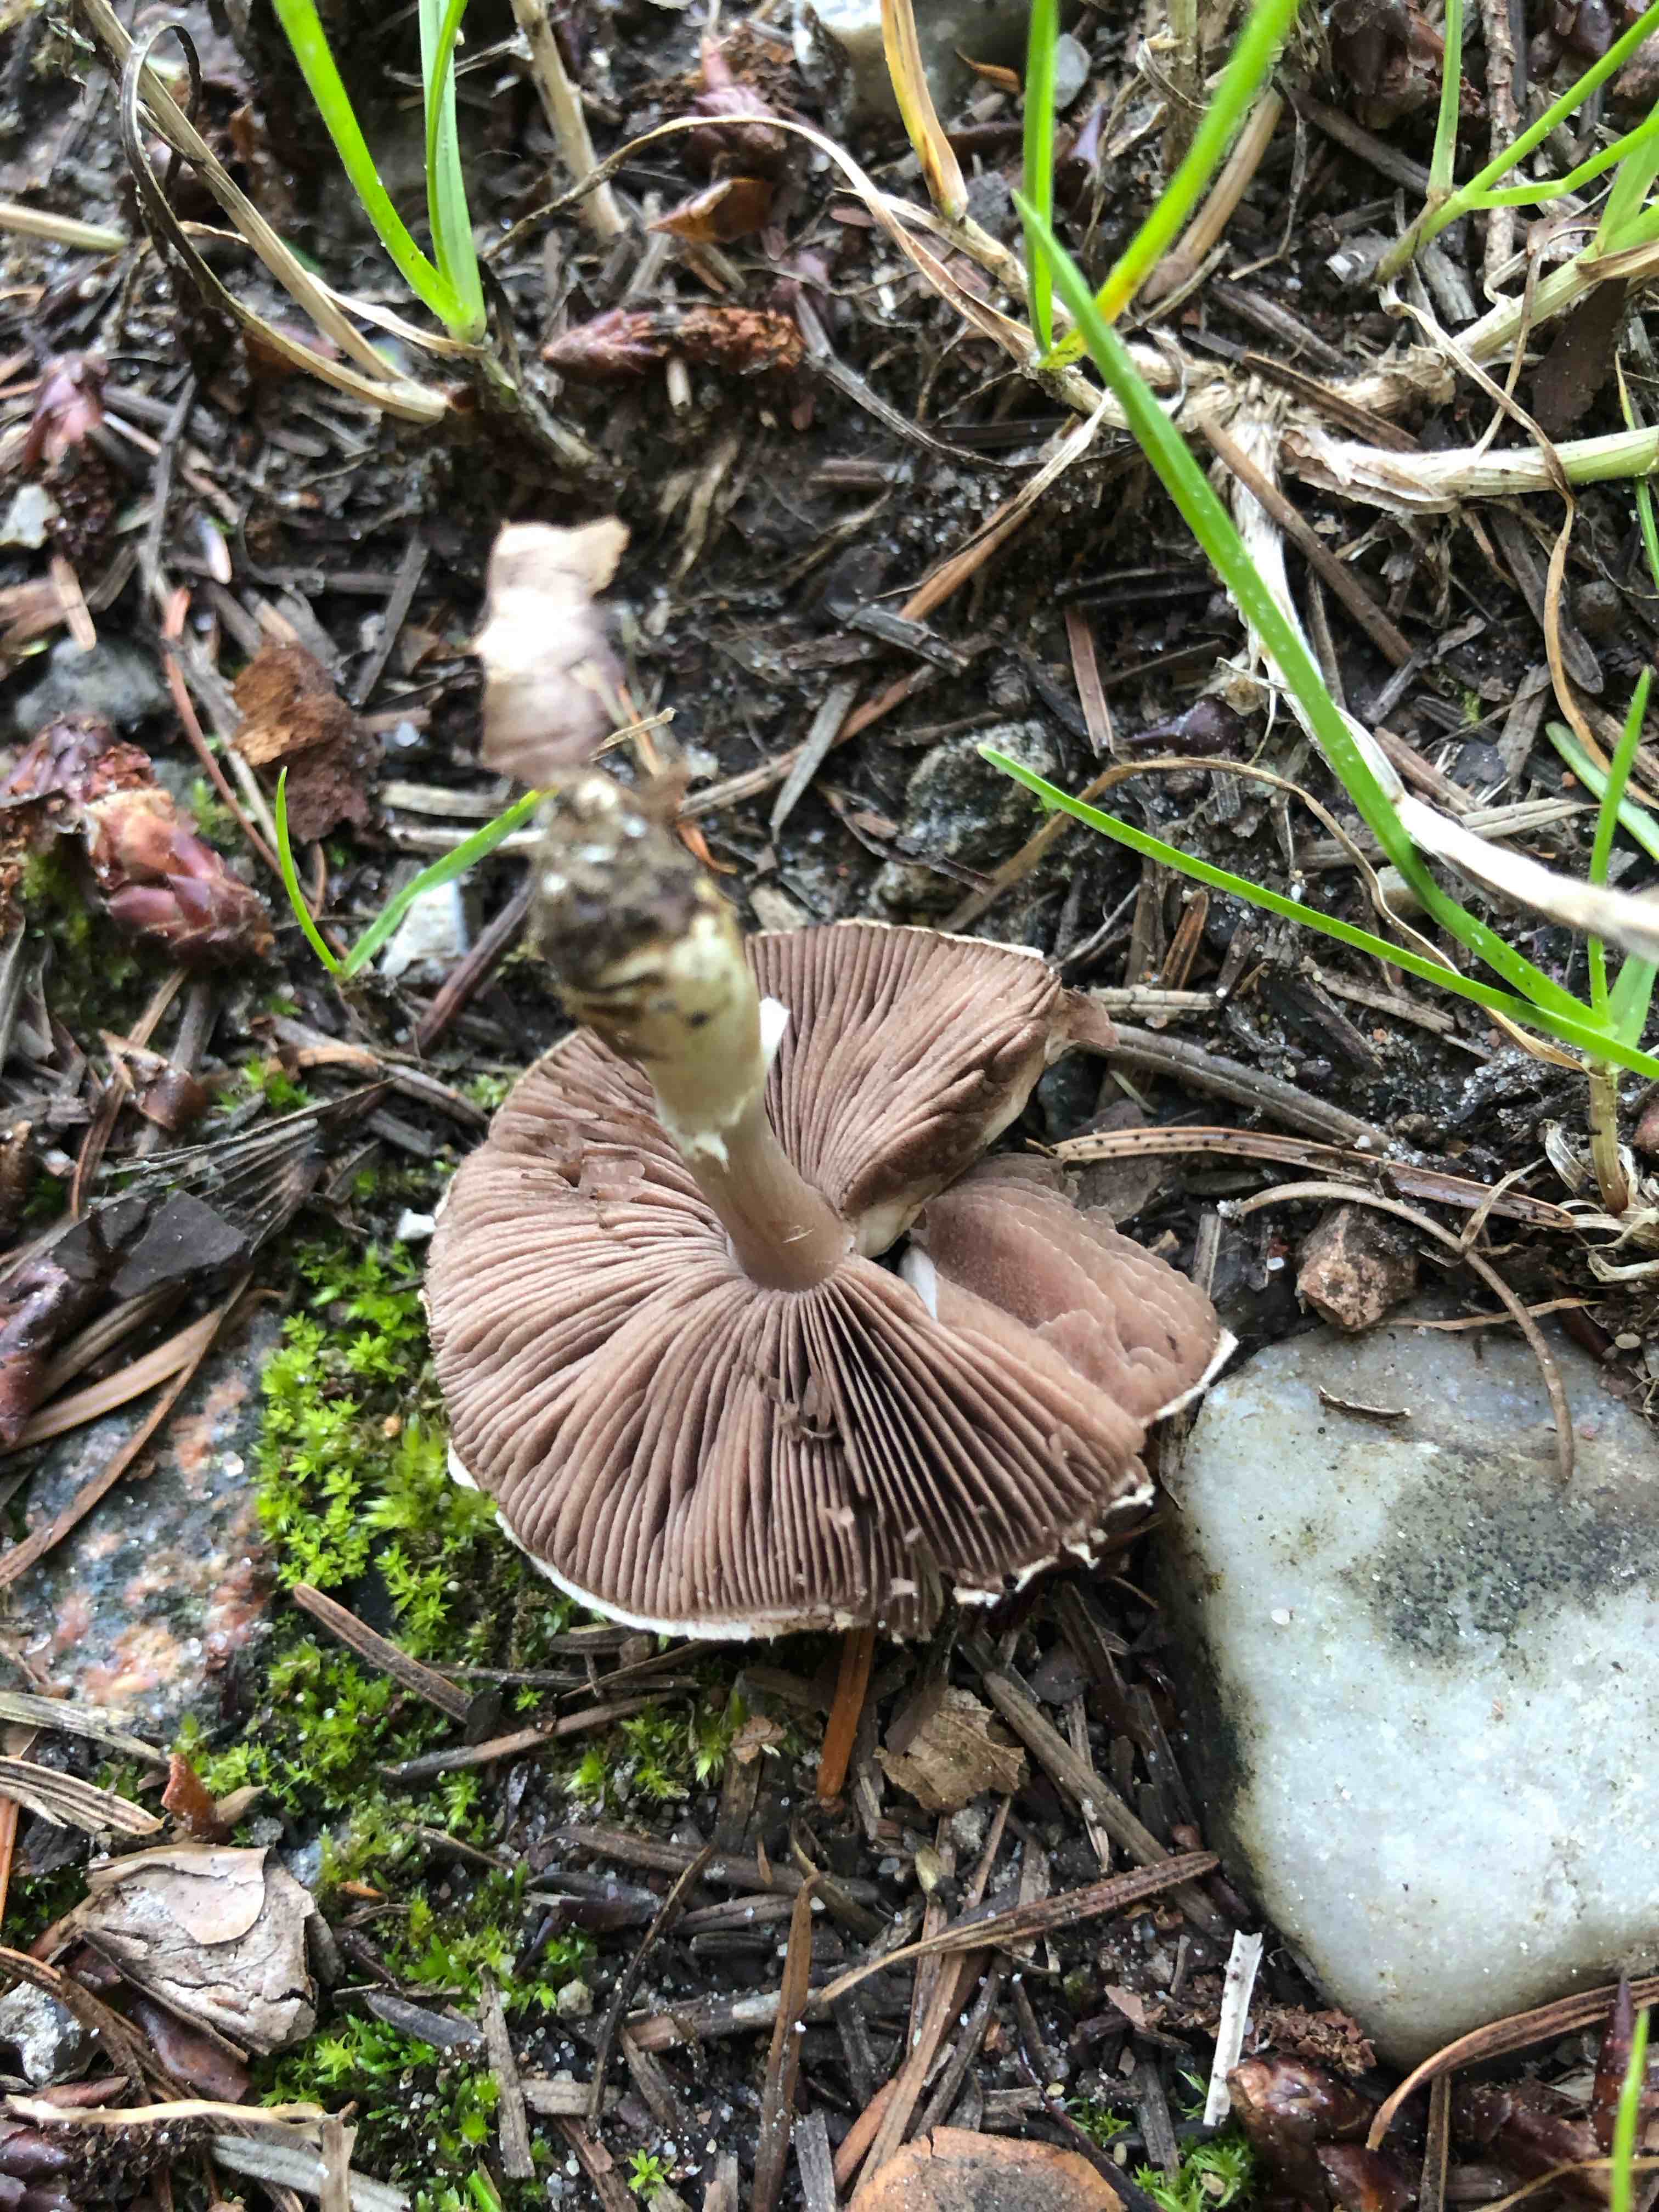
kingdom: Fungi
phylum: Basidiomycota
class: Agaricomycetes
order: Agaricales
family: Agaricaceae
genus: Agaricus
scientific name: Agaricus
